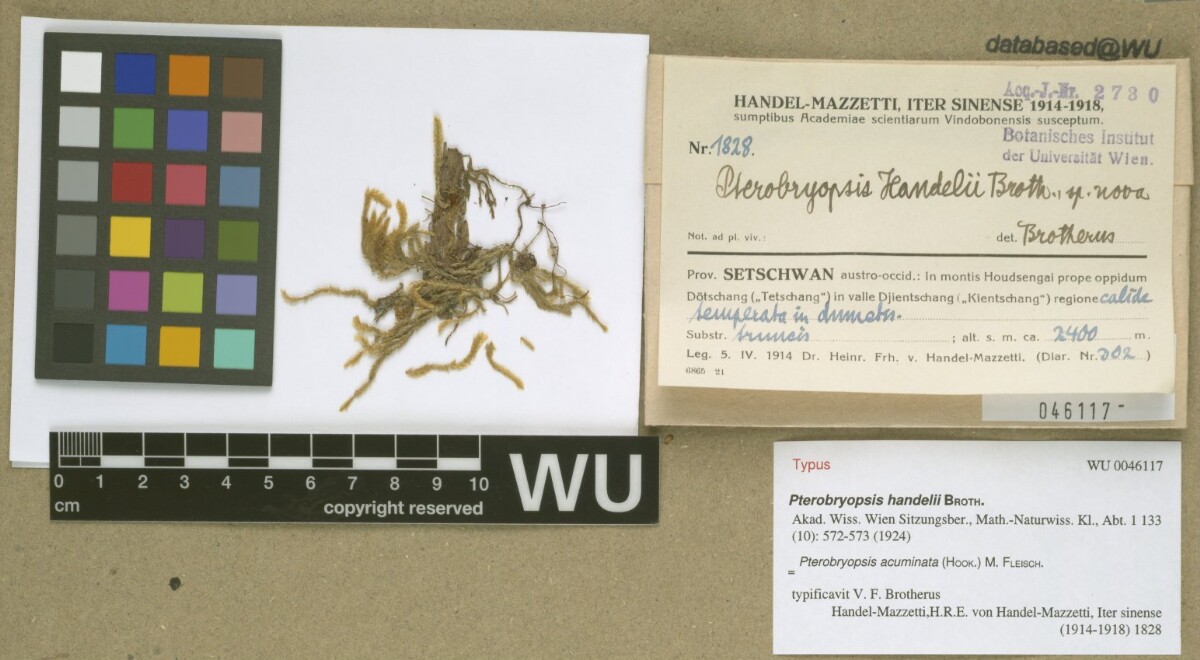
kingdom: Plantae
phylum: Bryophyta
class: Bryopsida
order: Hypnales
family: Pterobryaceae
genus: Pterobryopsis
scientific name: Pterobryopsis acuminata
